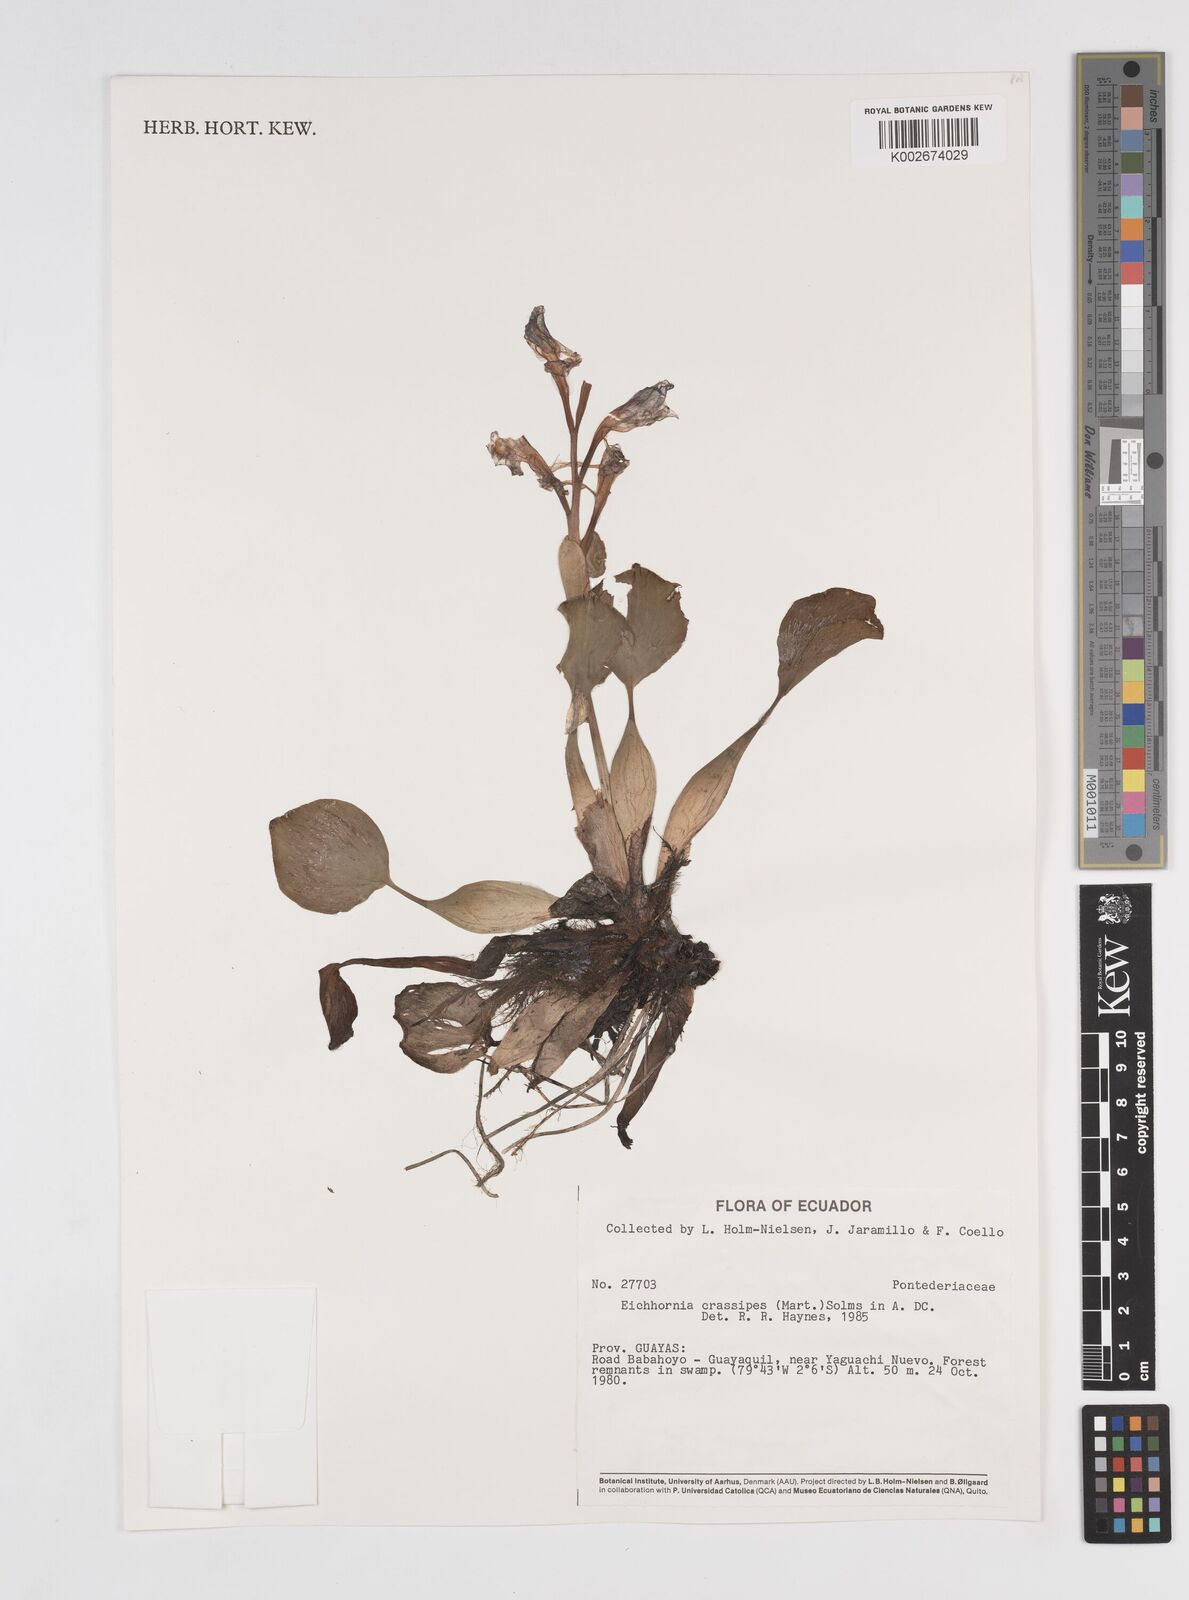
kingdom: Plantae
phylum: Tracheophyta
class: Liliopsida
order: Commelinales
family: Pontederiaceae
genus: Pontederia
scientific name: Pontederia crassipes
